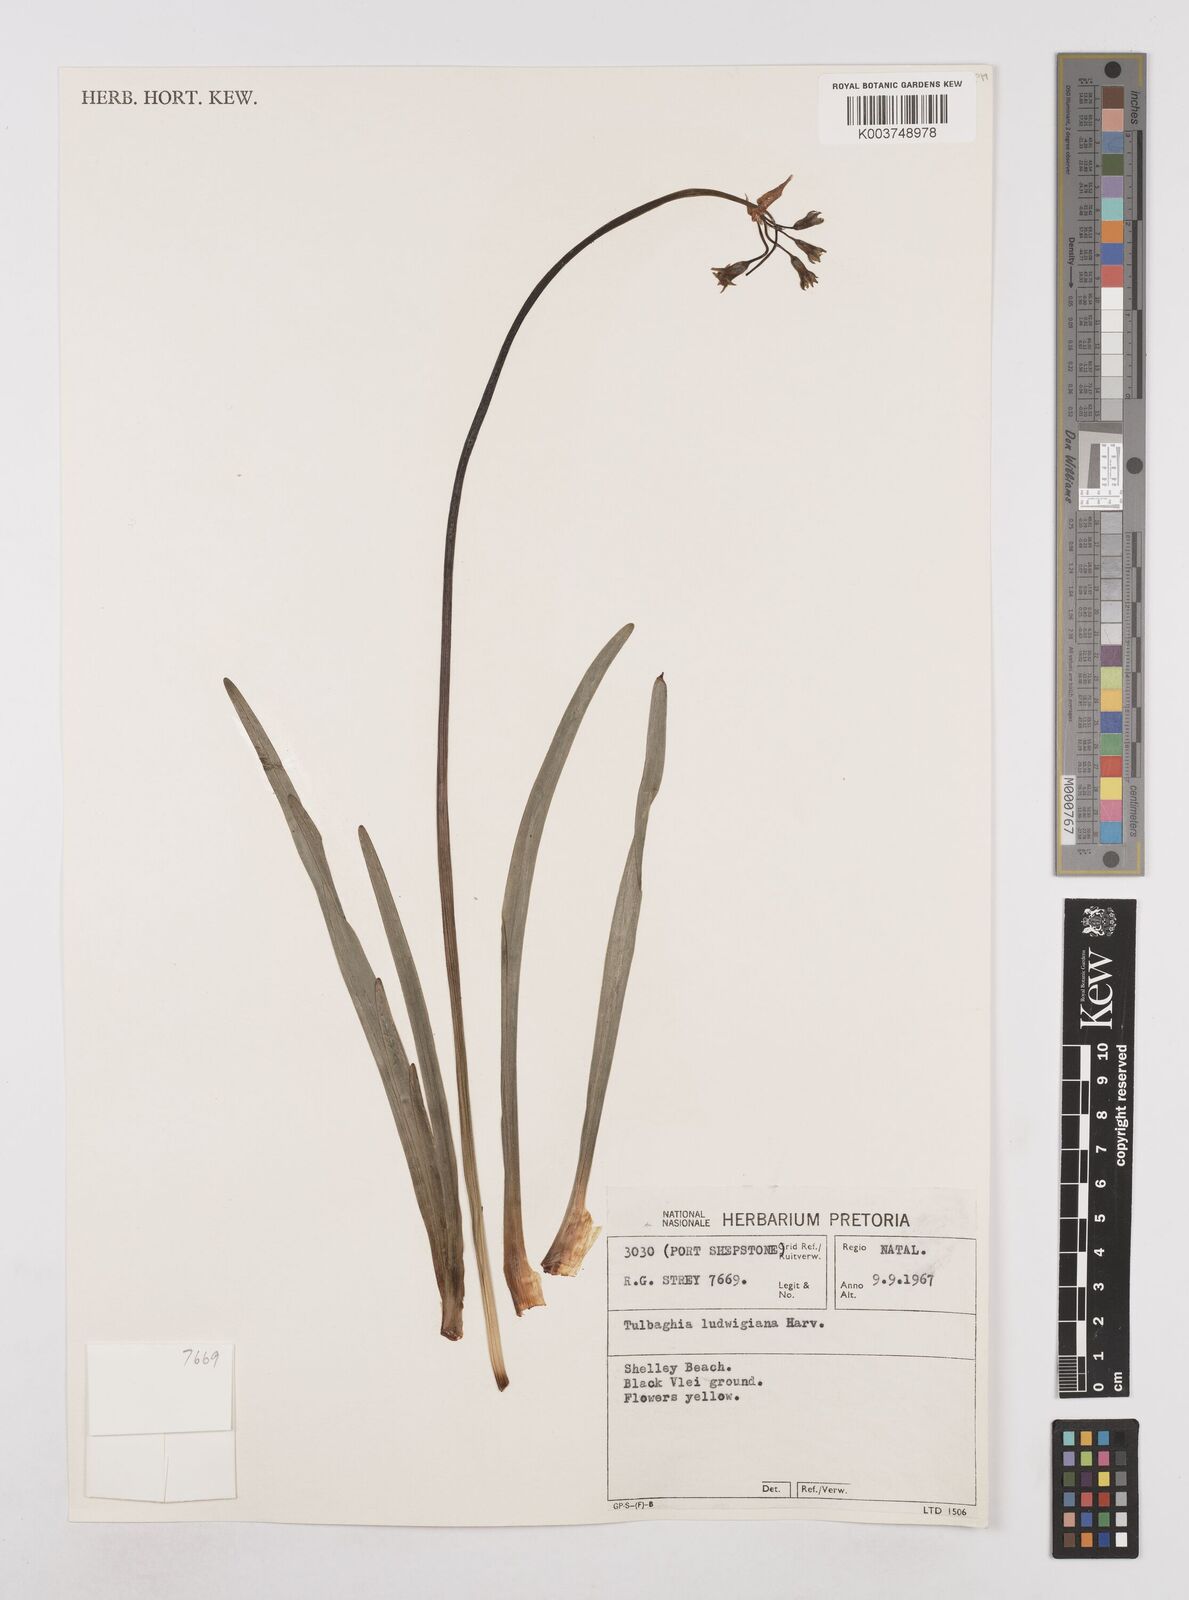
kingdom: Plantae
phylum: Tracheophyta
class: Liliopsida
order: Asparagales
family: Amaryllidaceae
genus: Tulbaghia
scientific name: Tulbaghia ludwigiana
